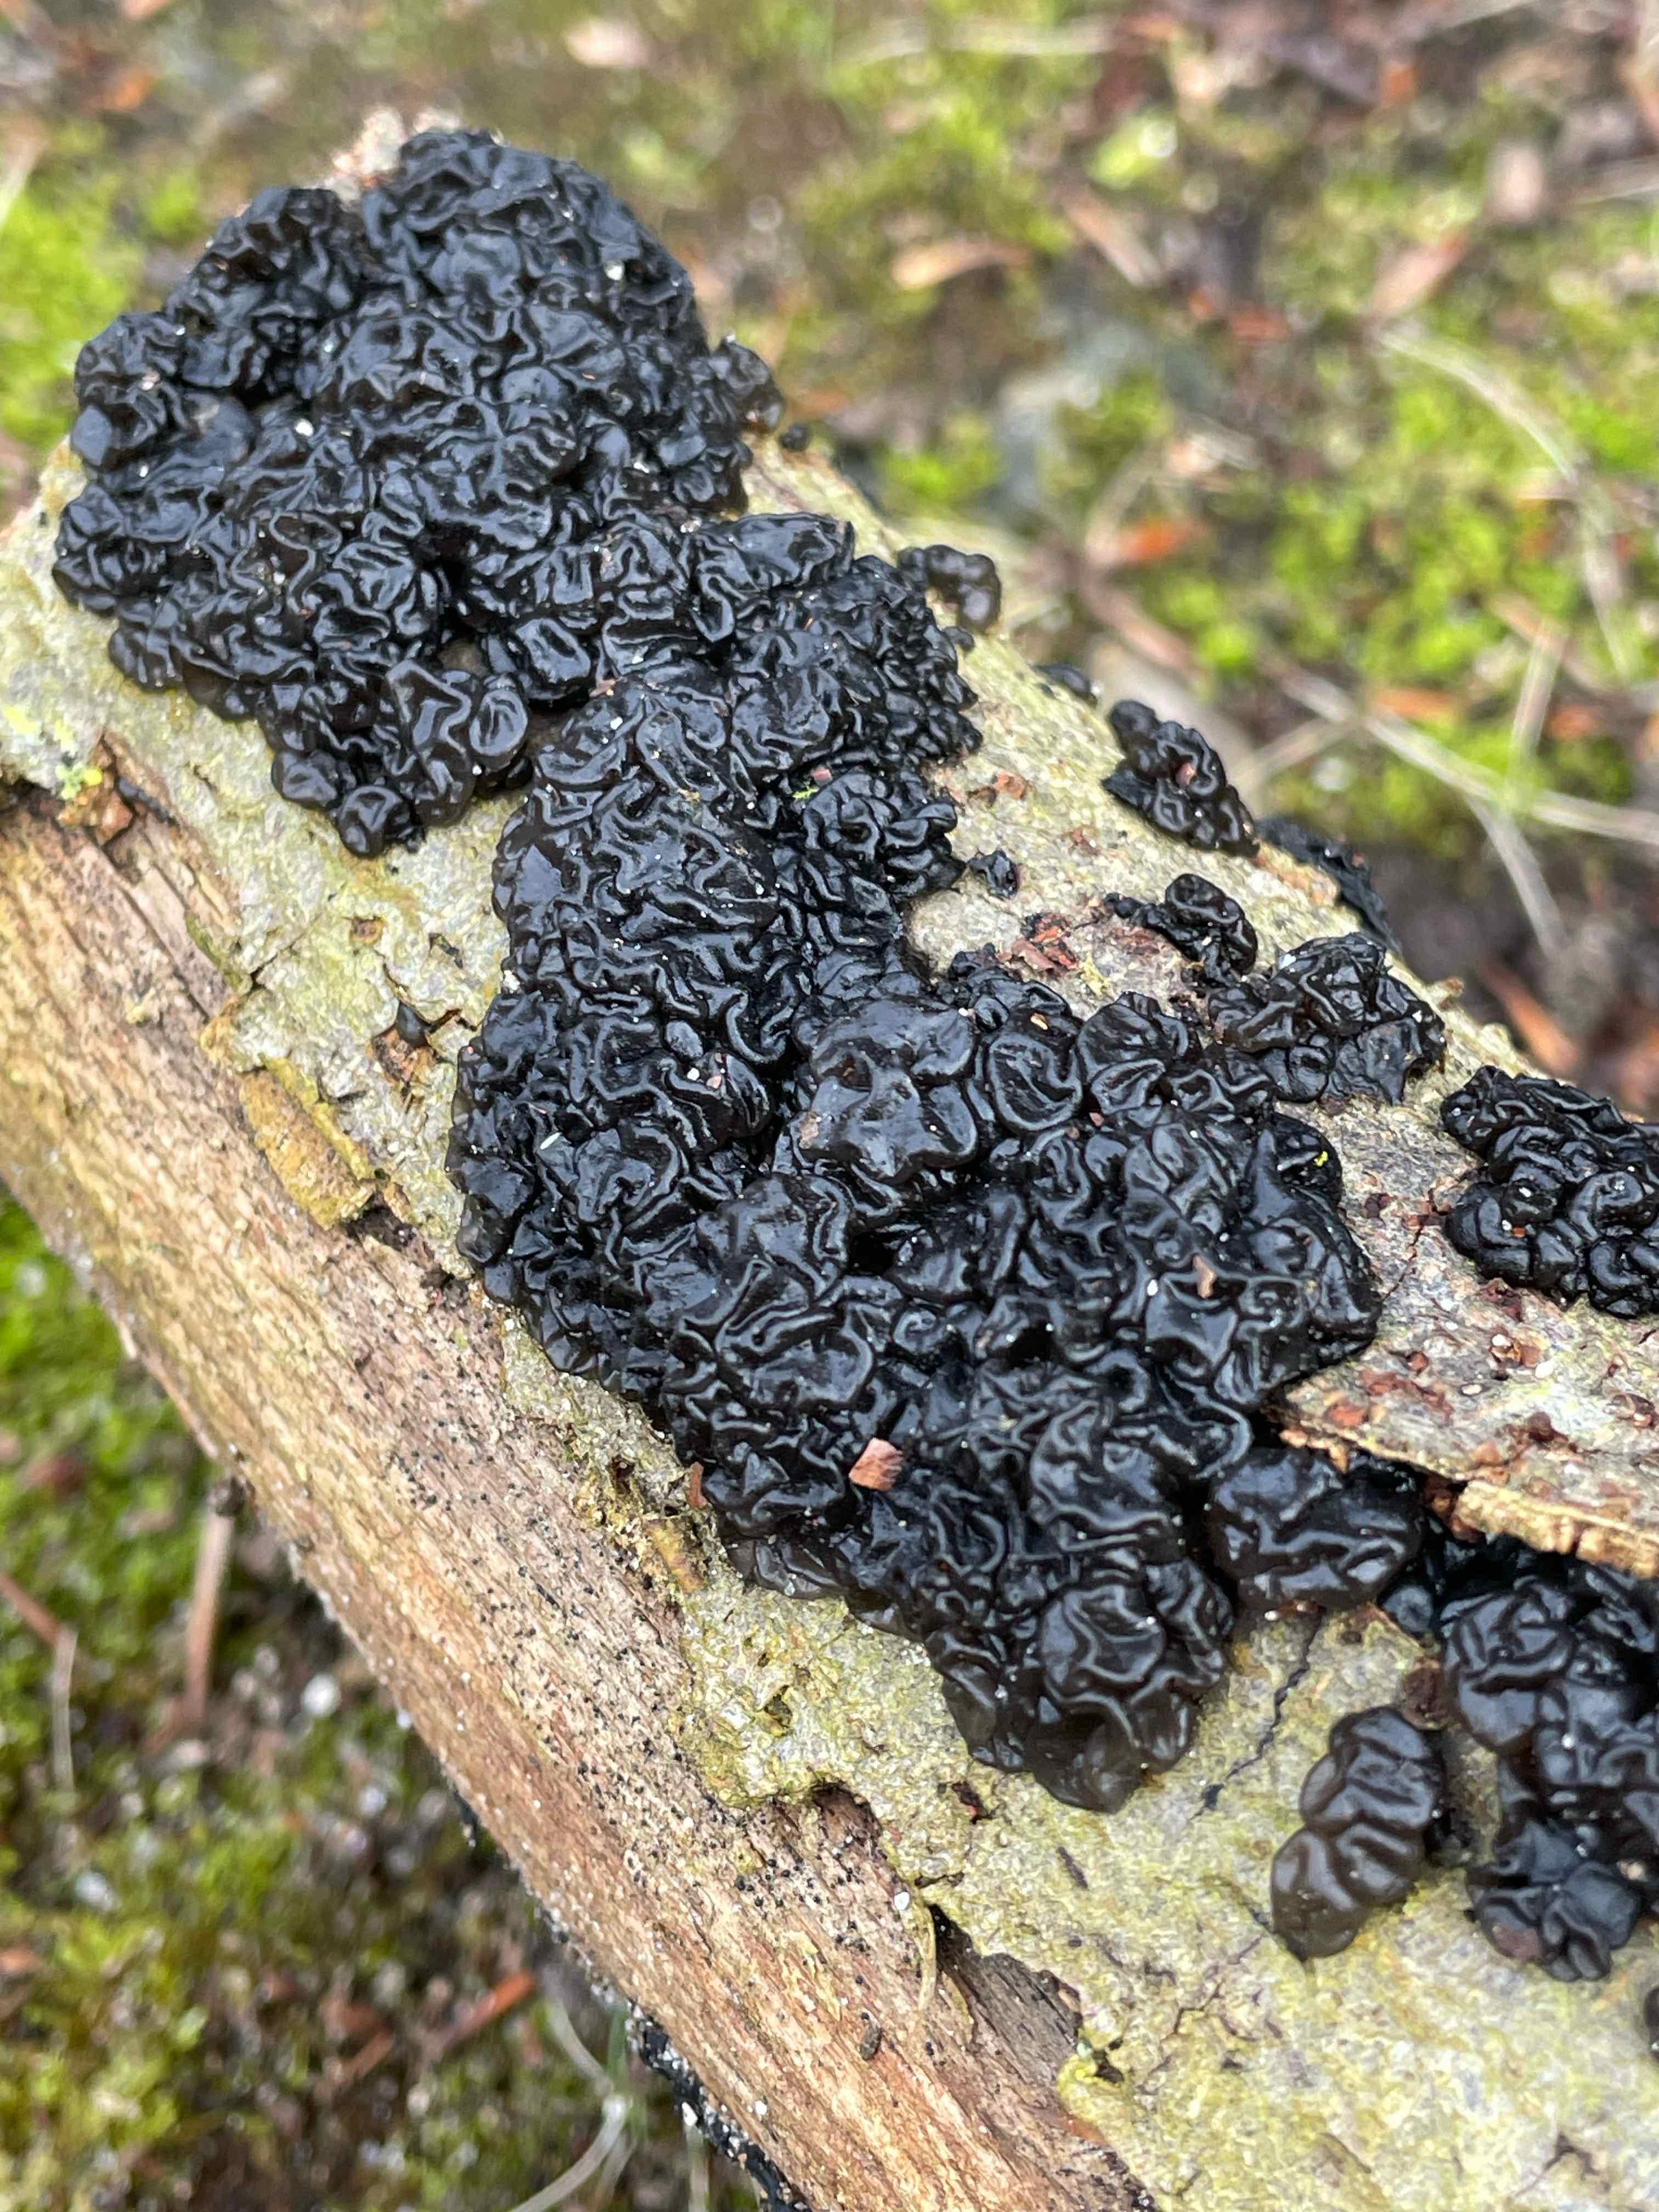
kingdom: Fungi
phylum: Basidiomycota
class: Agaricomycetes
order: Auriculariales
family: Auriculariaceae
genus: Exidia
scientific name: Exidia nigricans
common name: almindelig bævretop
